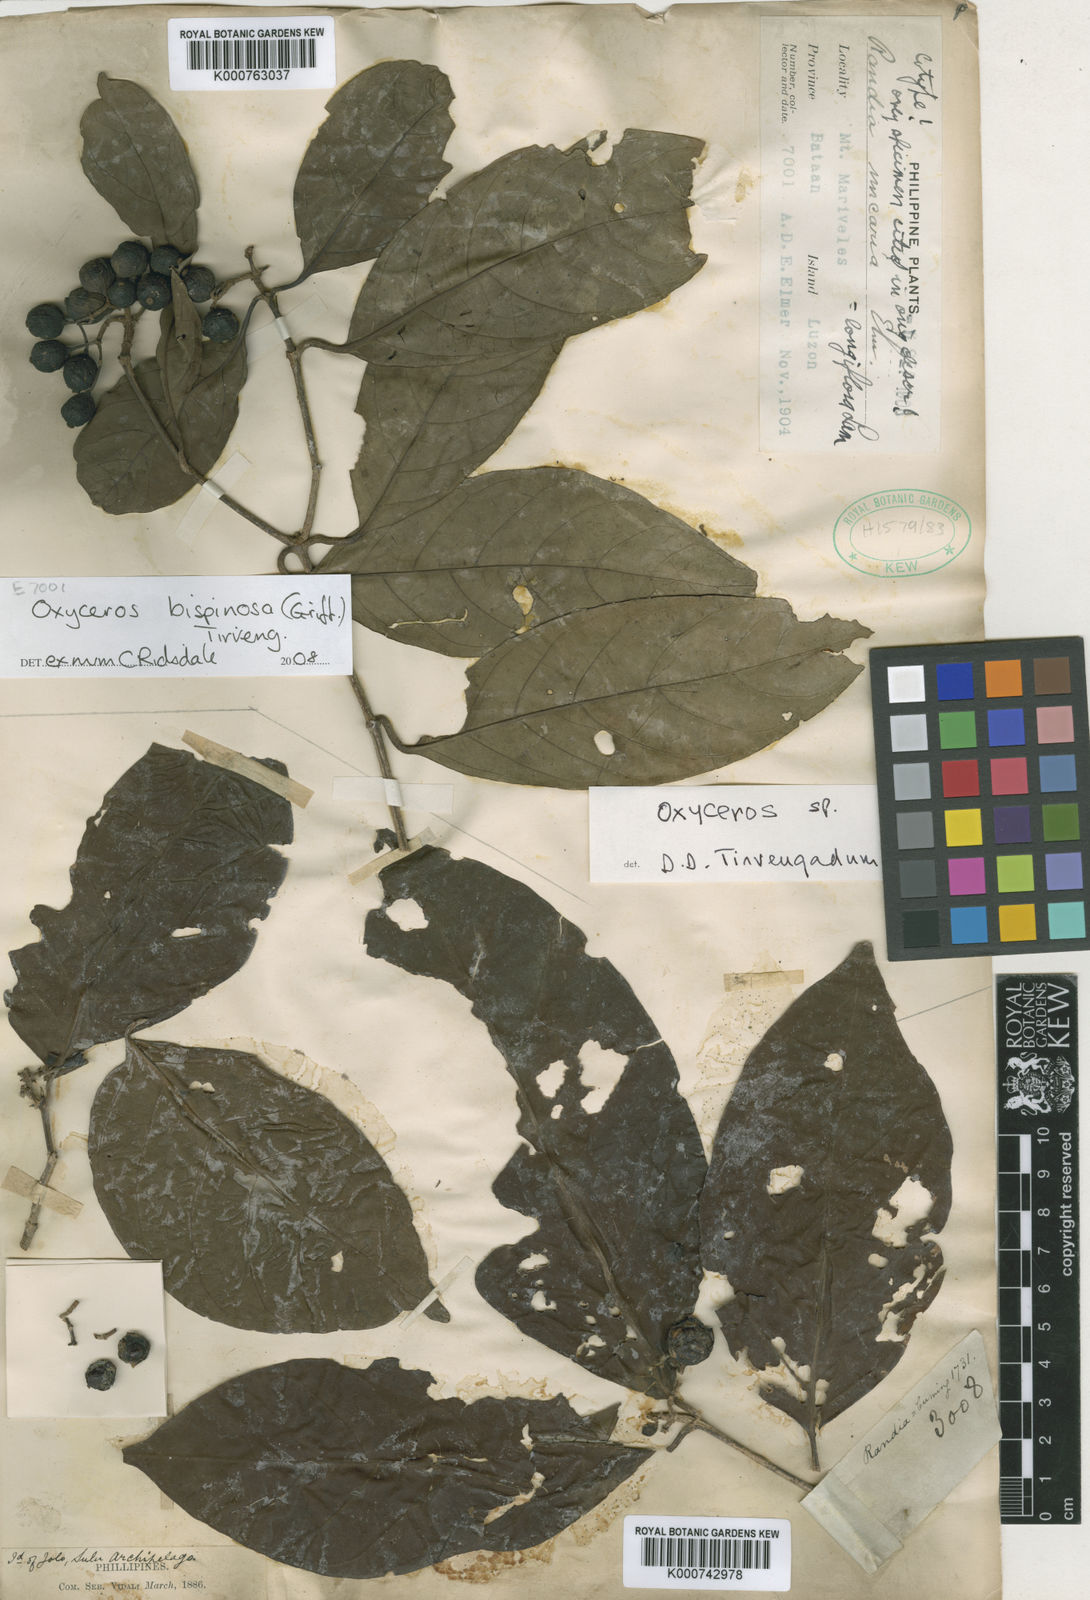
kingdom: Plantae
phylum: Tracheophyta
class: Magnoliopsida
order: Gentianales
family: Rubiaceae
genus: Oxyceros
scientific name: Oxyceros bispinosus
